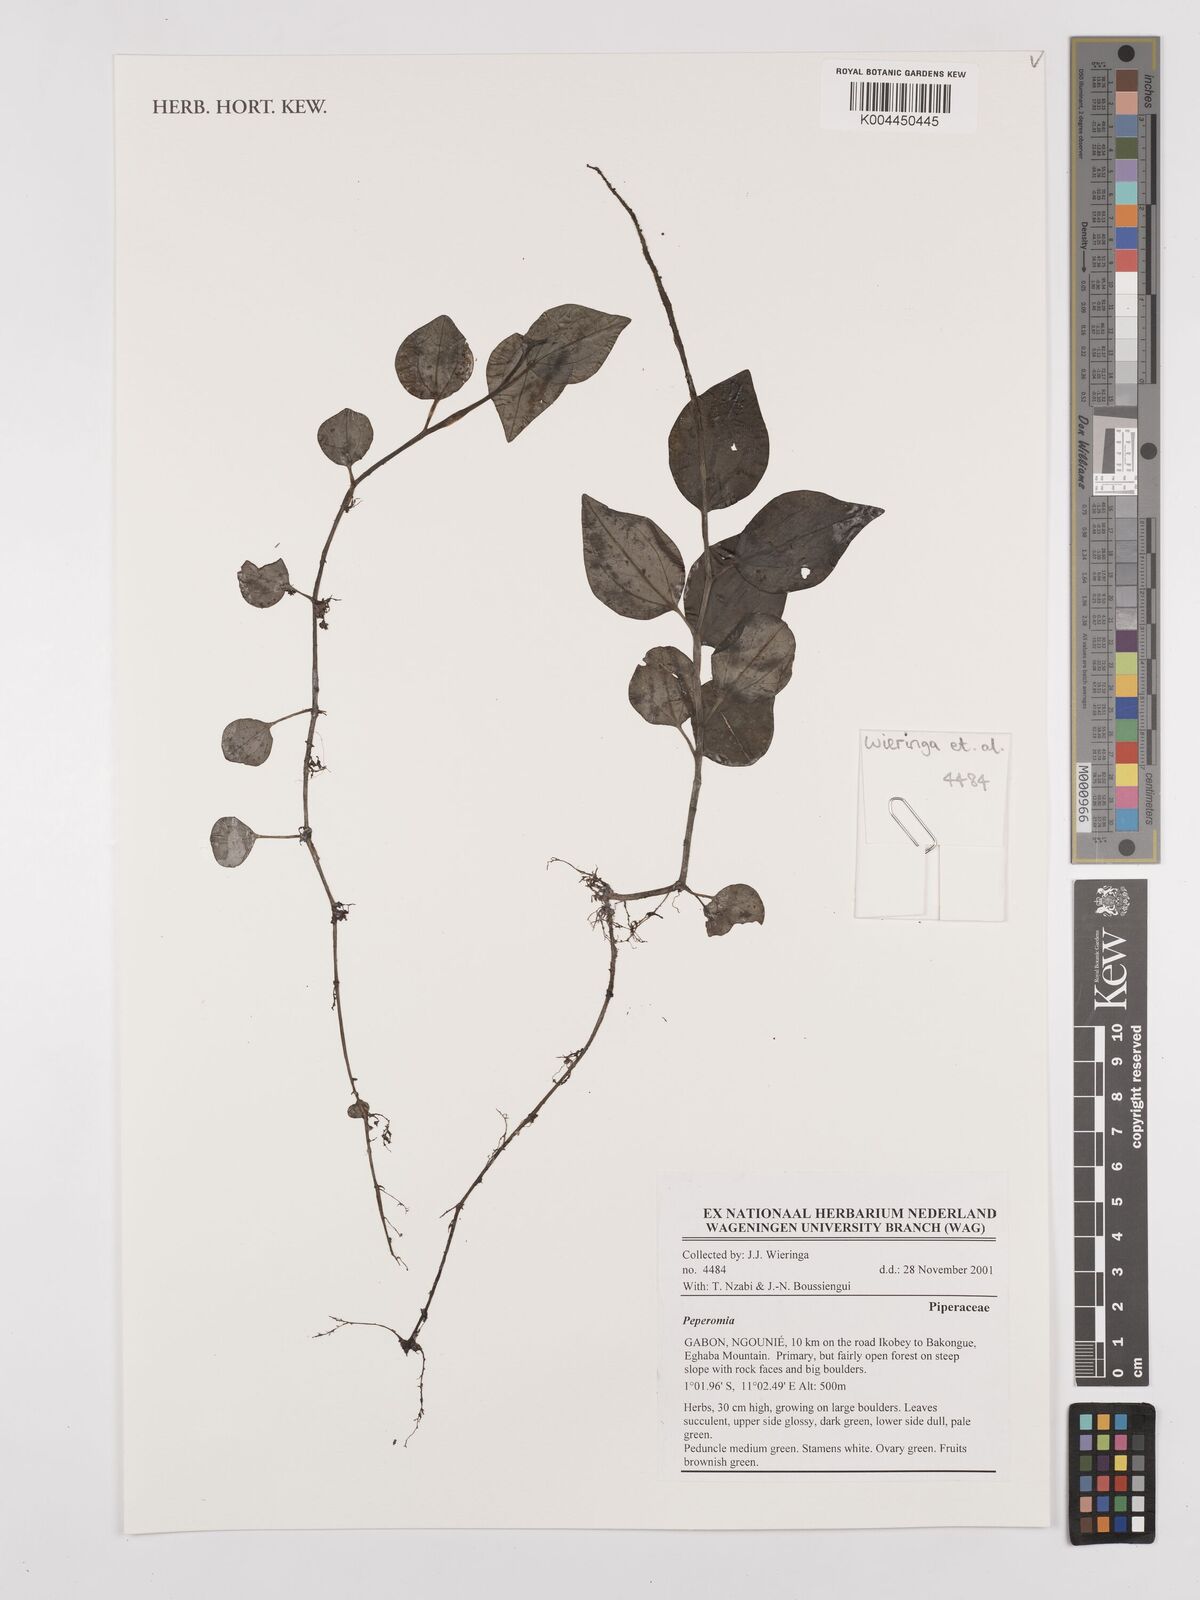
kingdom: Plantae
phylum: Tracheophyta
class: Magnoliopsida
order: Piperales
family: Piperaceae
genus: Peperomia
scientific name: Peperomia
